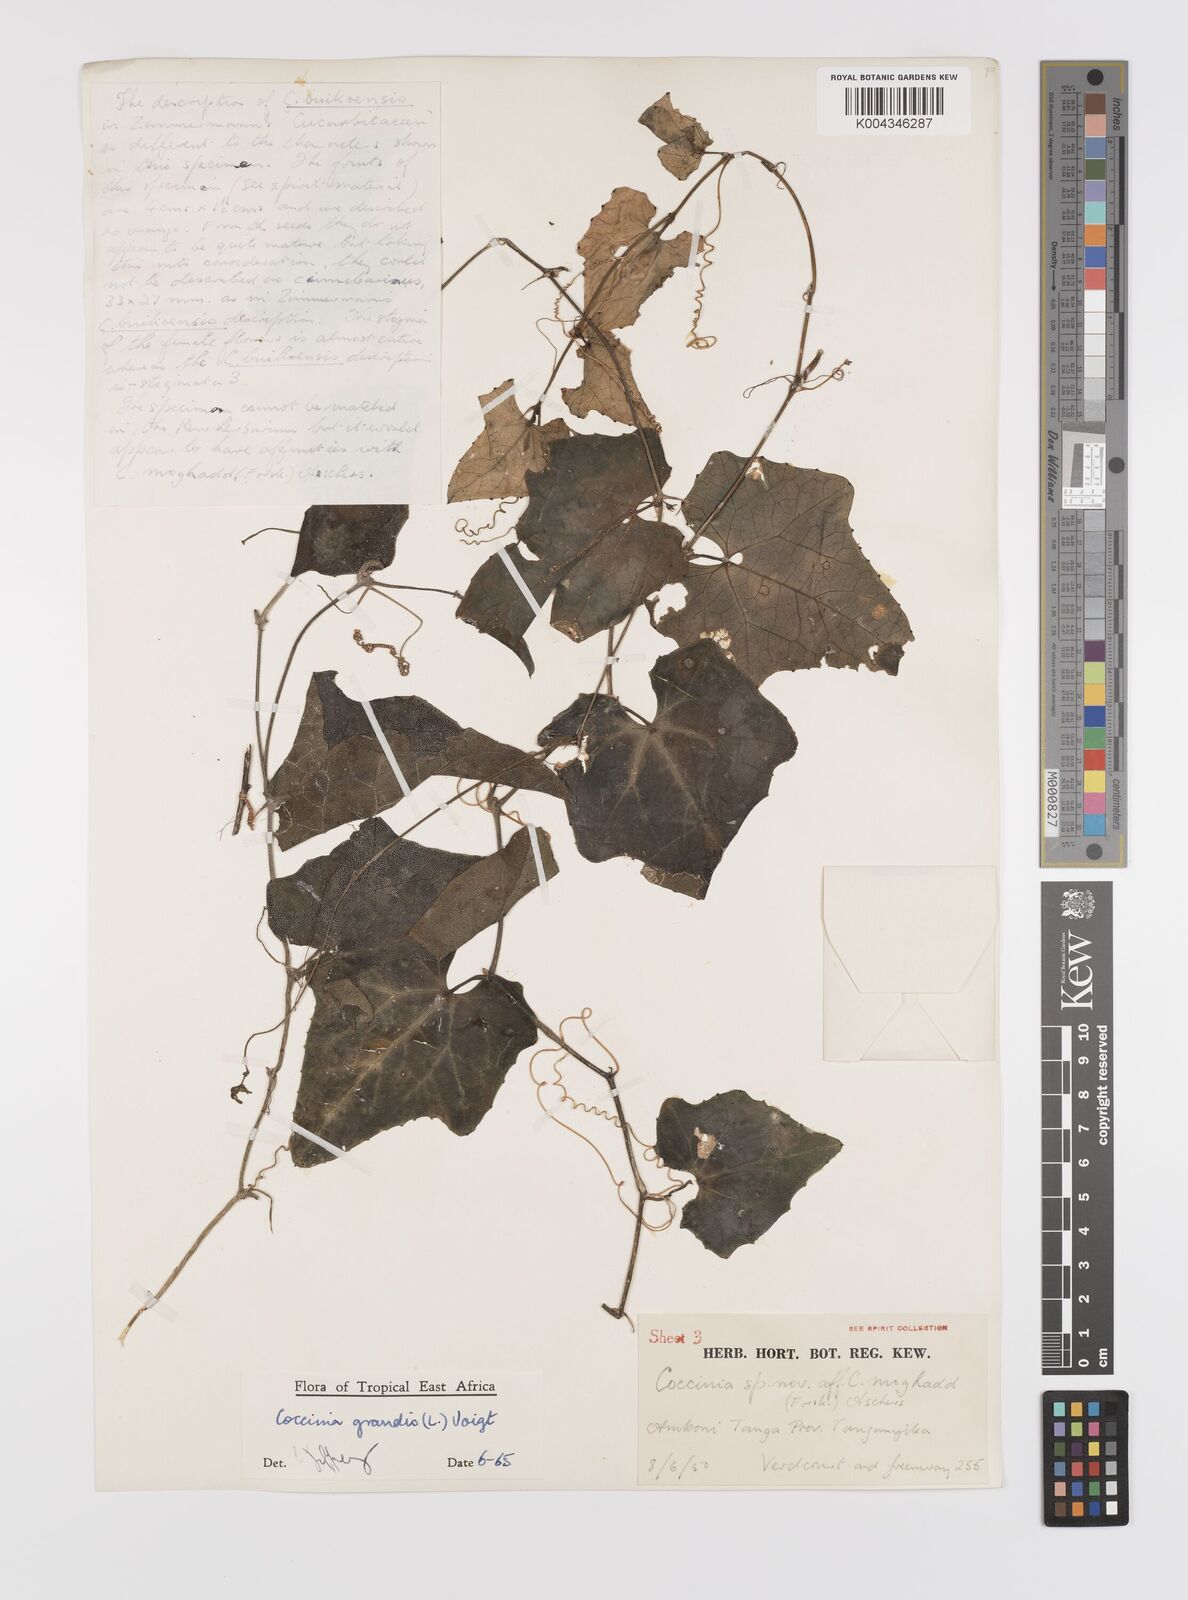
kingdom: Plantae
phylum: Tracheophyta
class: Magnoliopsida
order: Cucurbitales
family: Cucurbitaceae
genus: Coccinia
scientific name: Coccinia grandis
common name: Ivy gourd
